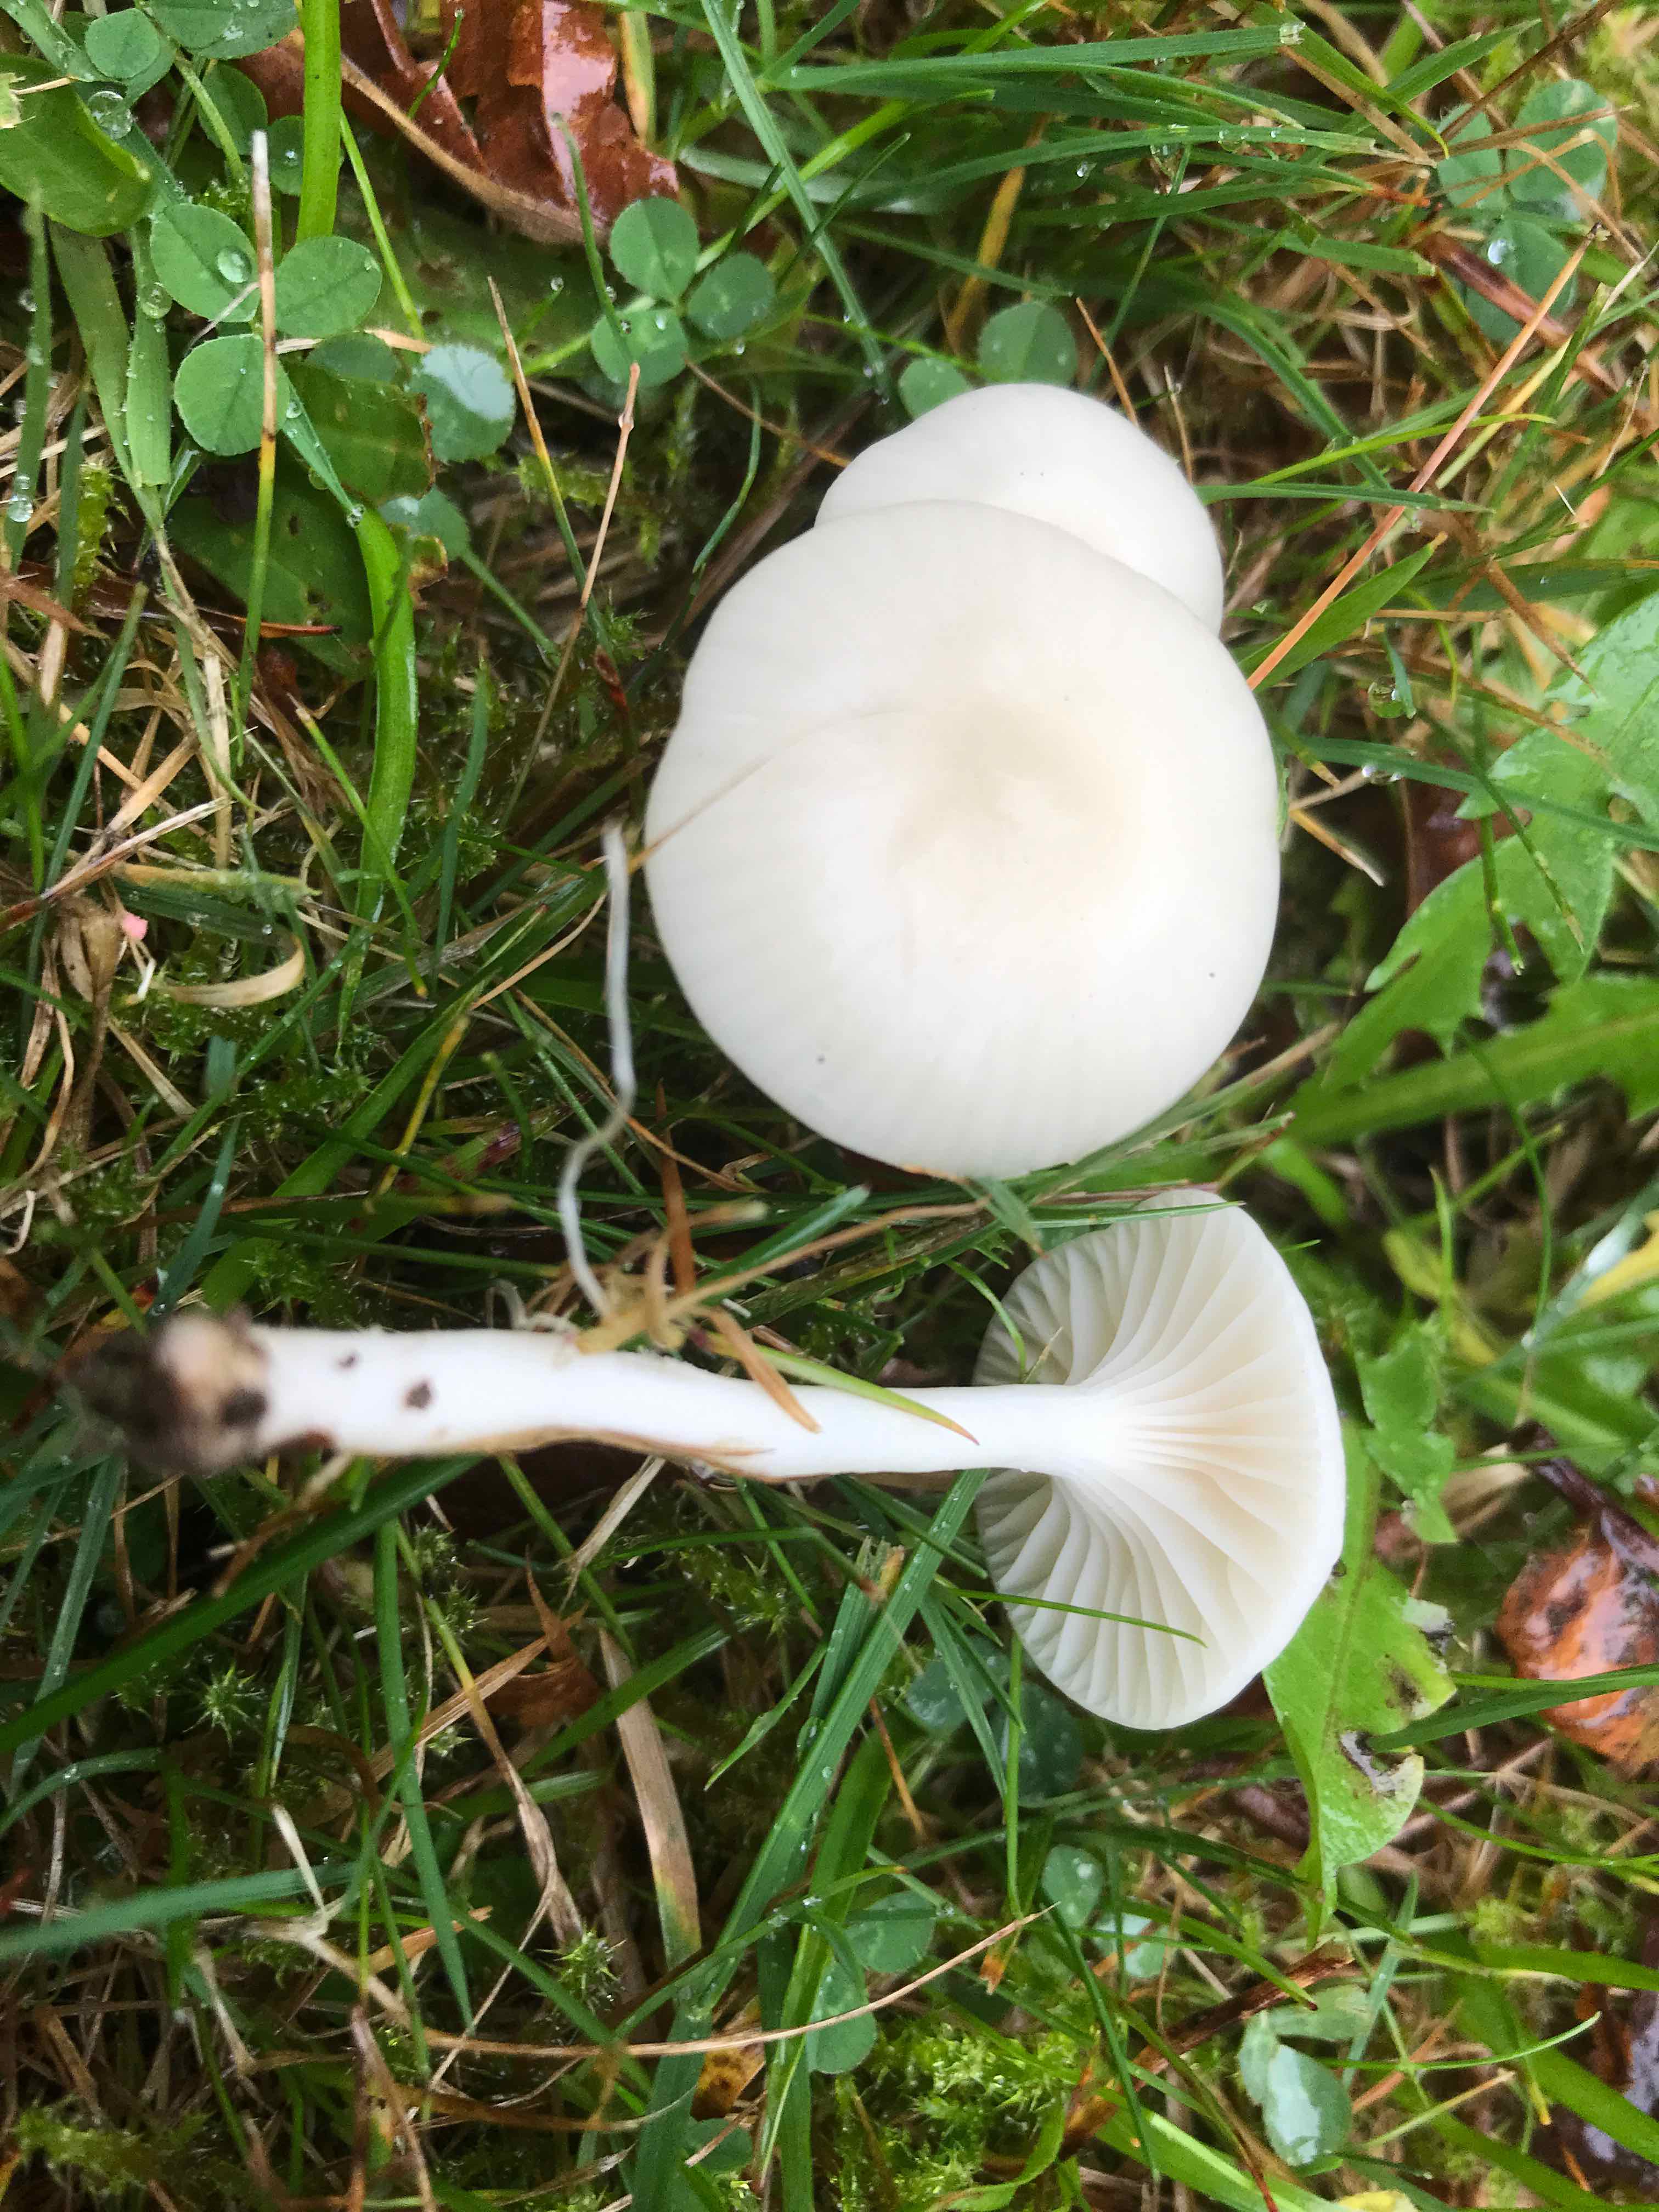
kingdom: Fungi
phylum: Basidiomycota
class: Agaricomycetes
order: Agaricales
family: Hygrophoraceae
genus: Cuphophyllus
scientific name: Cuphophyllus virgineus
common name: snehvid vokshat
